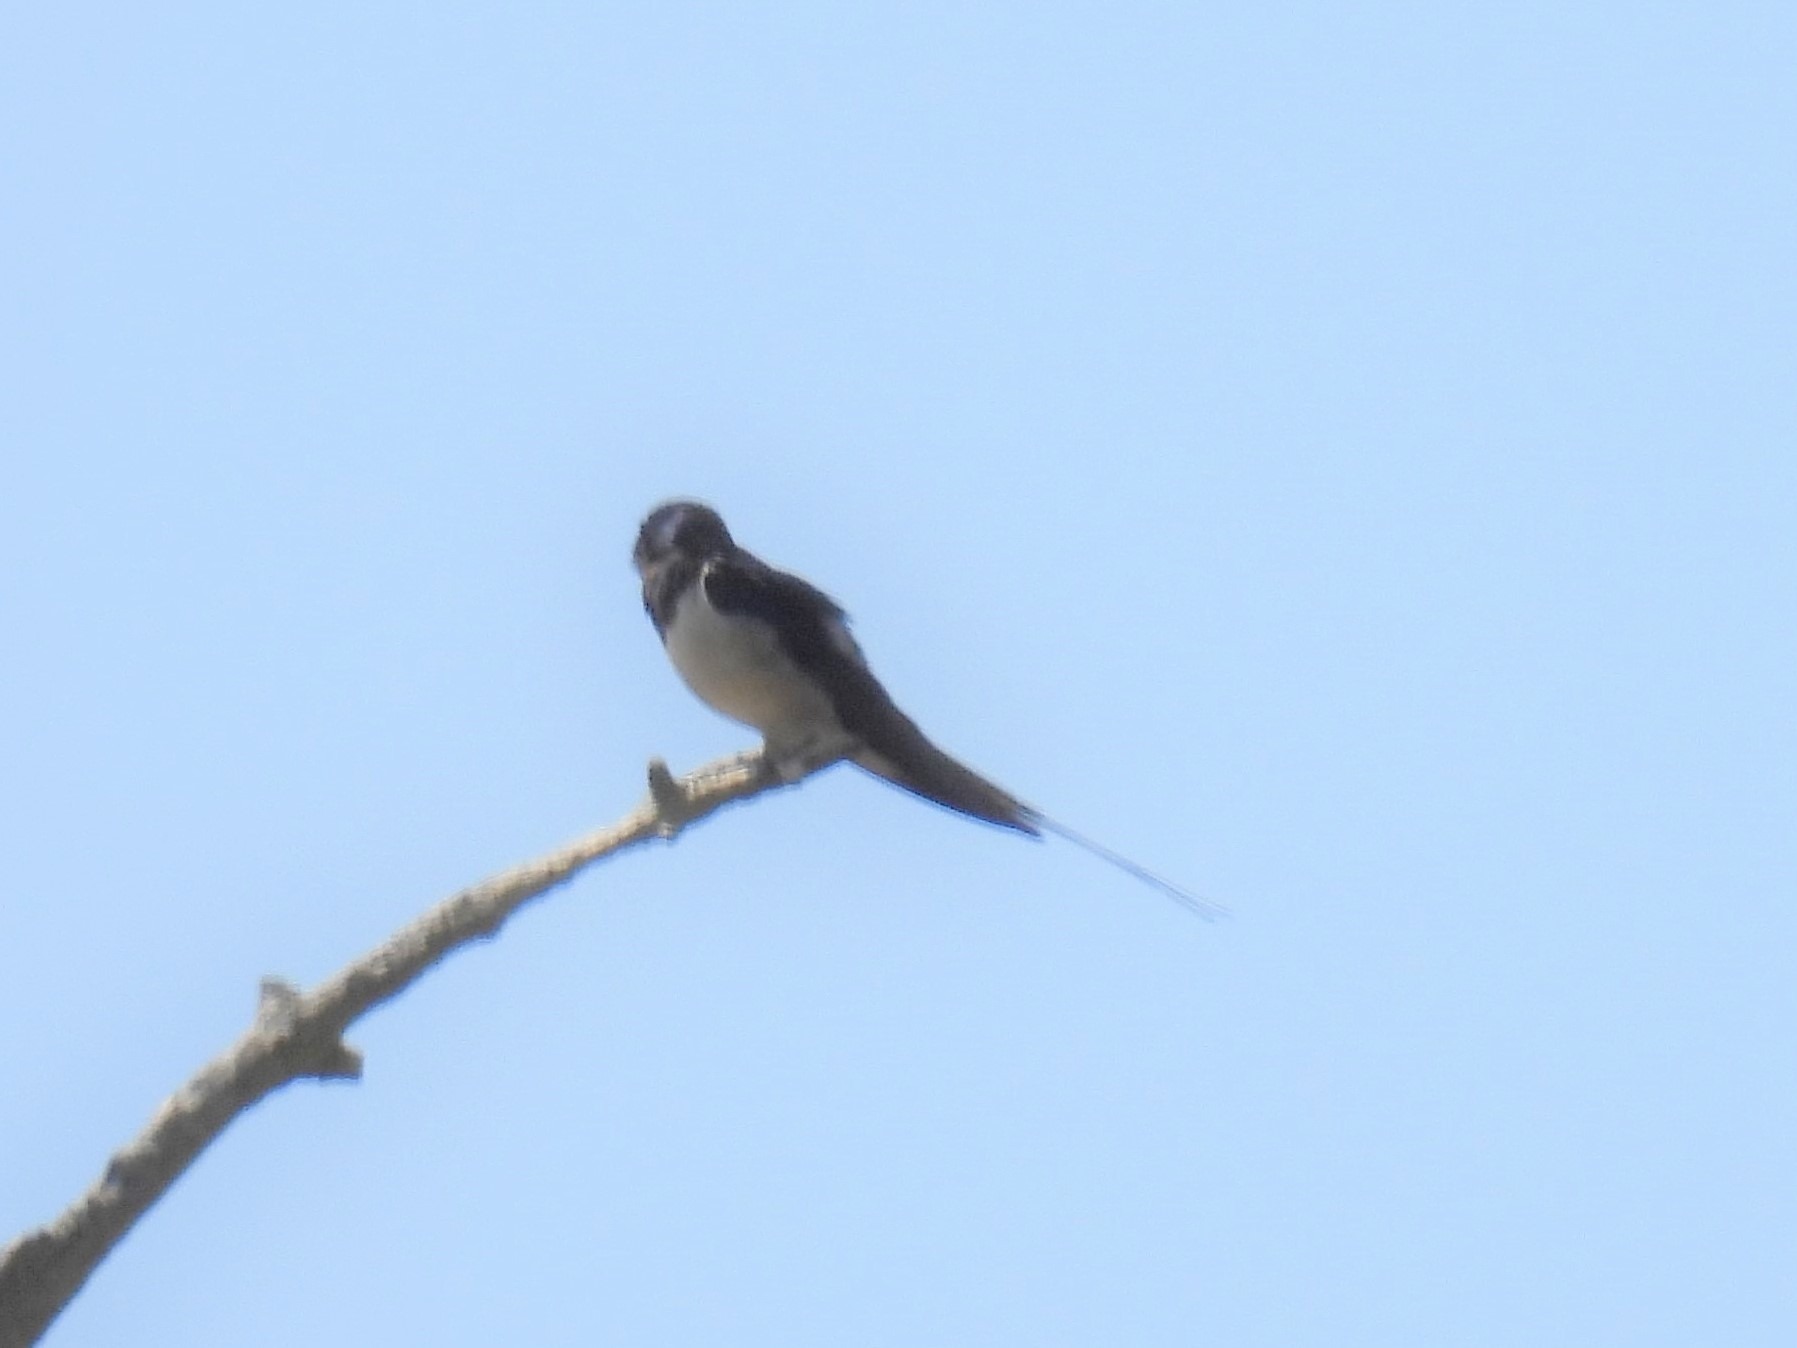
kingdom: Animalia
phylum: Chordata
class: Aves
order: Passeriformes
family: Hirundinidae
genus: Hirundo
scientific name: Hirundo rustica
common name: Landsvale
